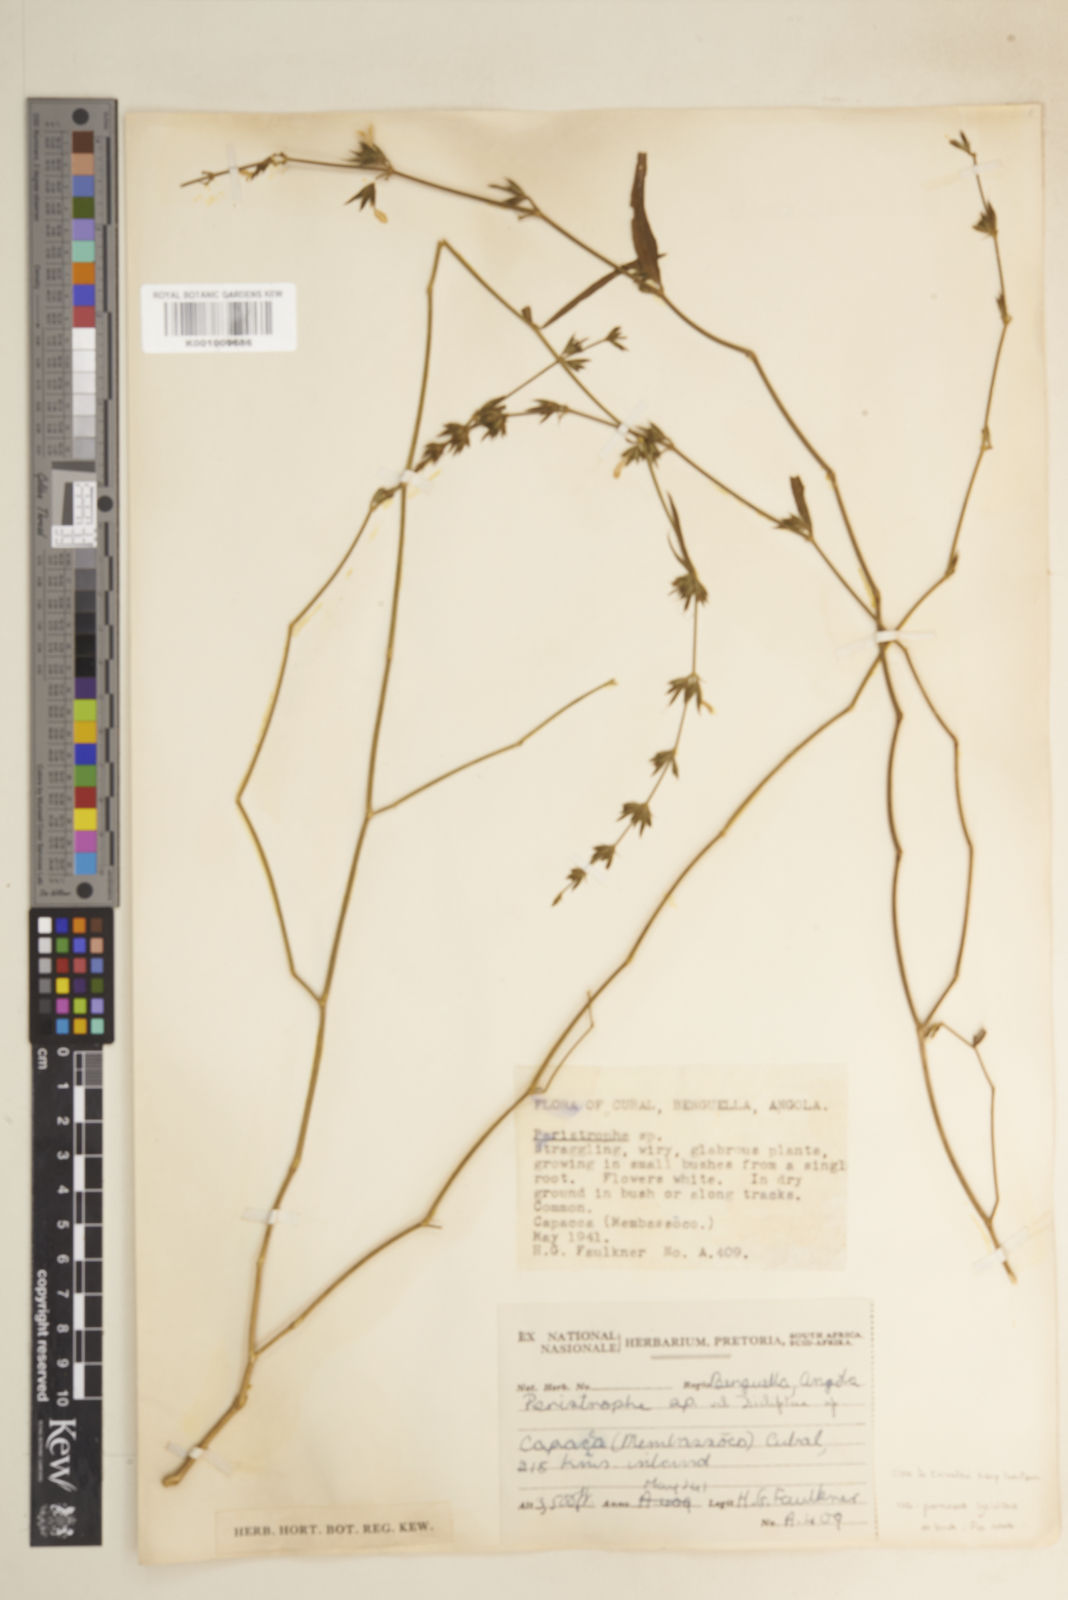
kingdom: Plantae
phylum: Tracheophyta
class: Magnoliopsida
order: Lamiales
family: Acanthaceae
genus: Dicliptera
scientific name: Dicliptera carvalhoi
